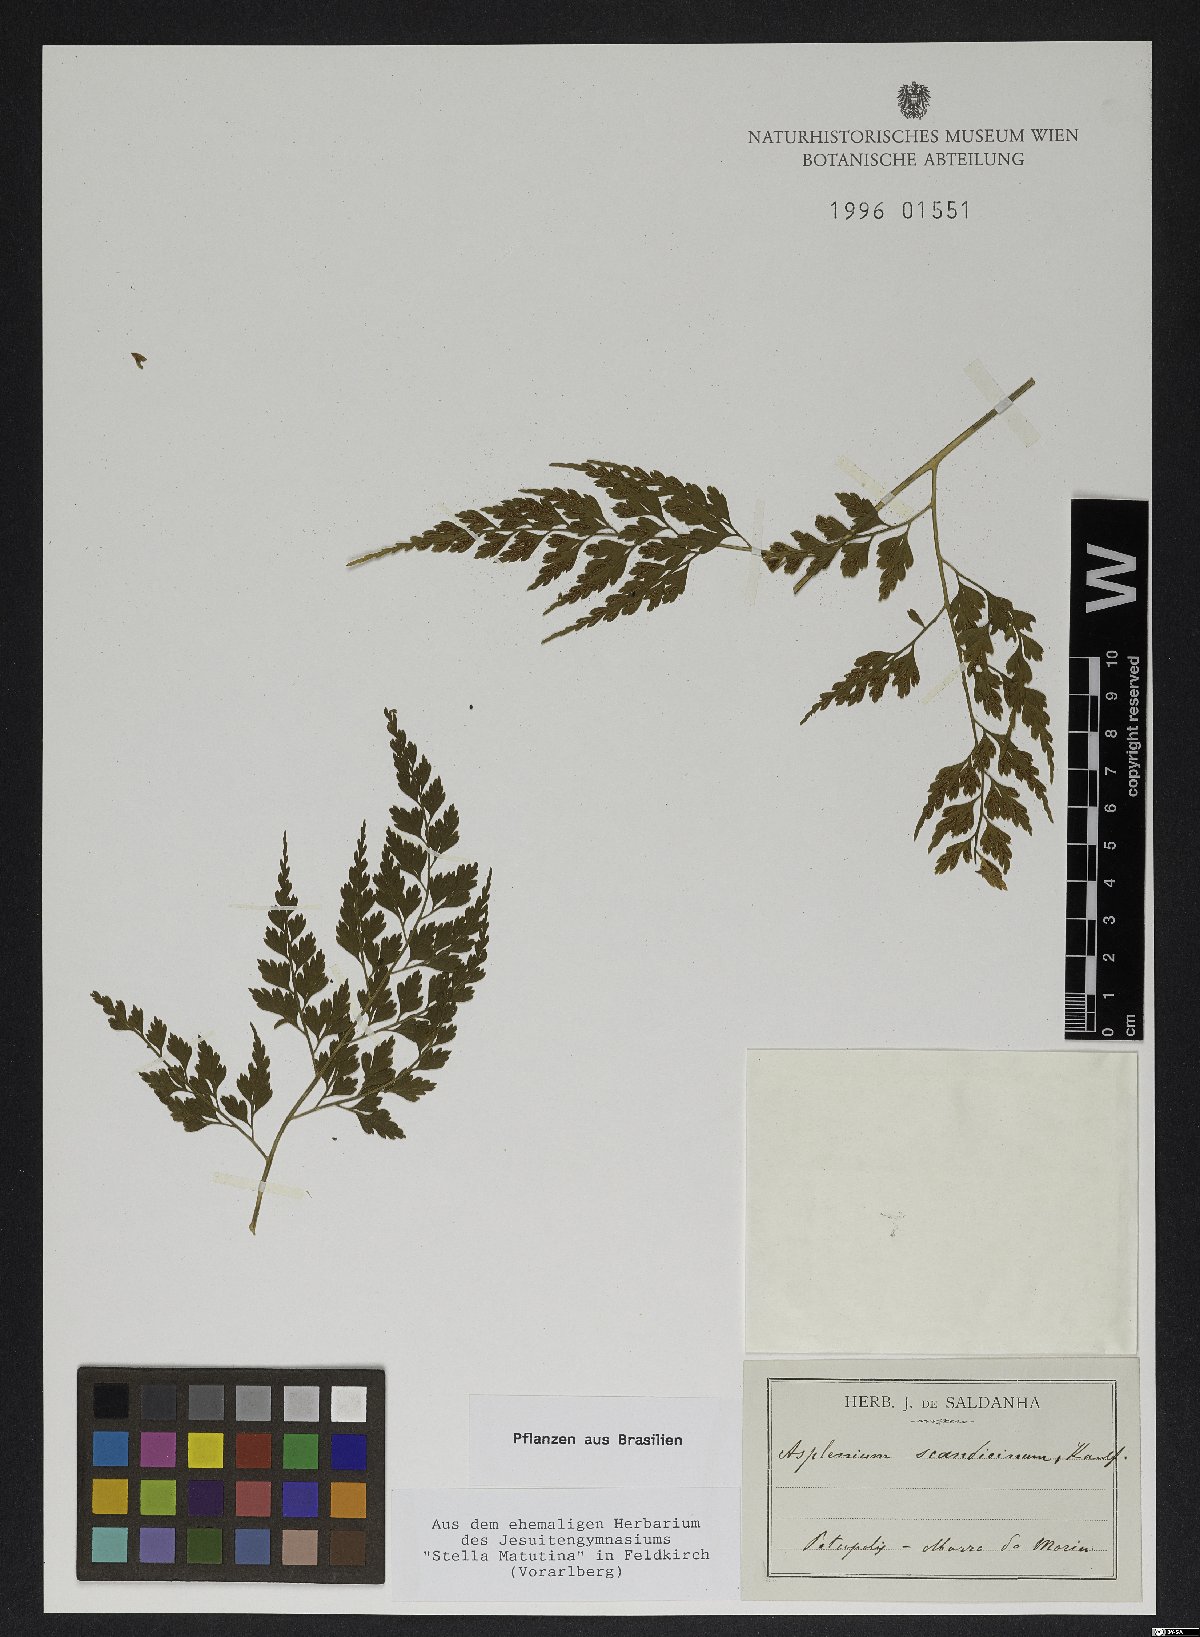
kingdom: Plantae
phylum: Tracheophyta
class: Polypodiopsida
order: Polypodiales
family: Aspleniaceae
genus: Asplenium
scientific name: Asplenium scandicinum
